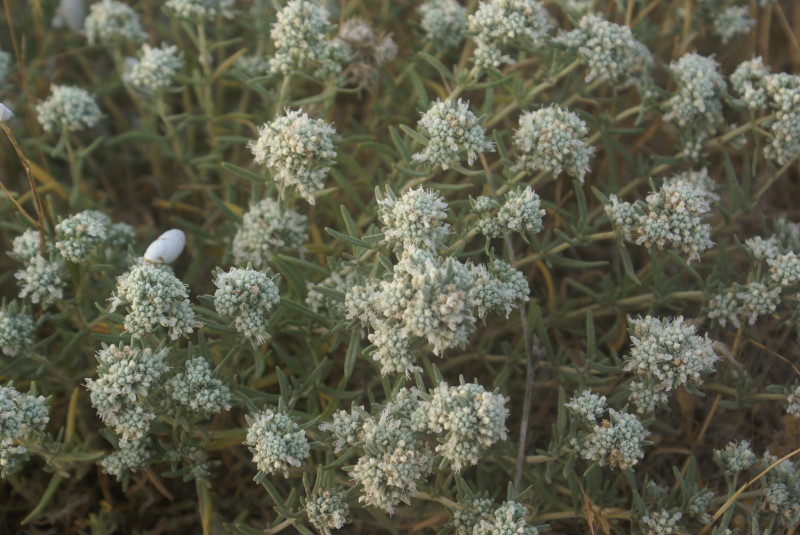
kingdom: Plantae
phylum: Tracheophyta
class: Magnoliopsida
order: Lamiales
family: Lamiaceae
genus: Teucrium
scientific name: Teucrium polium
